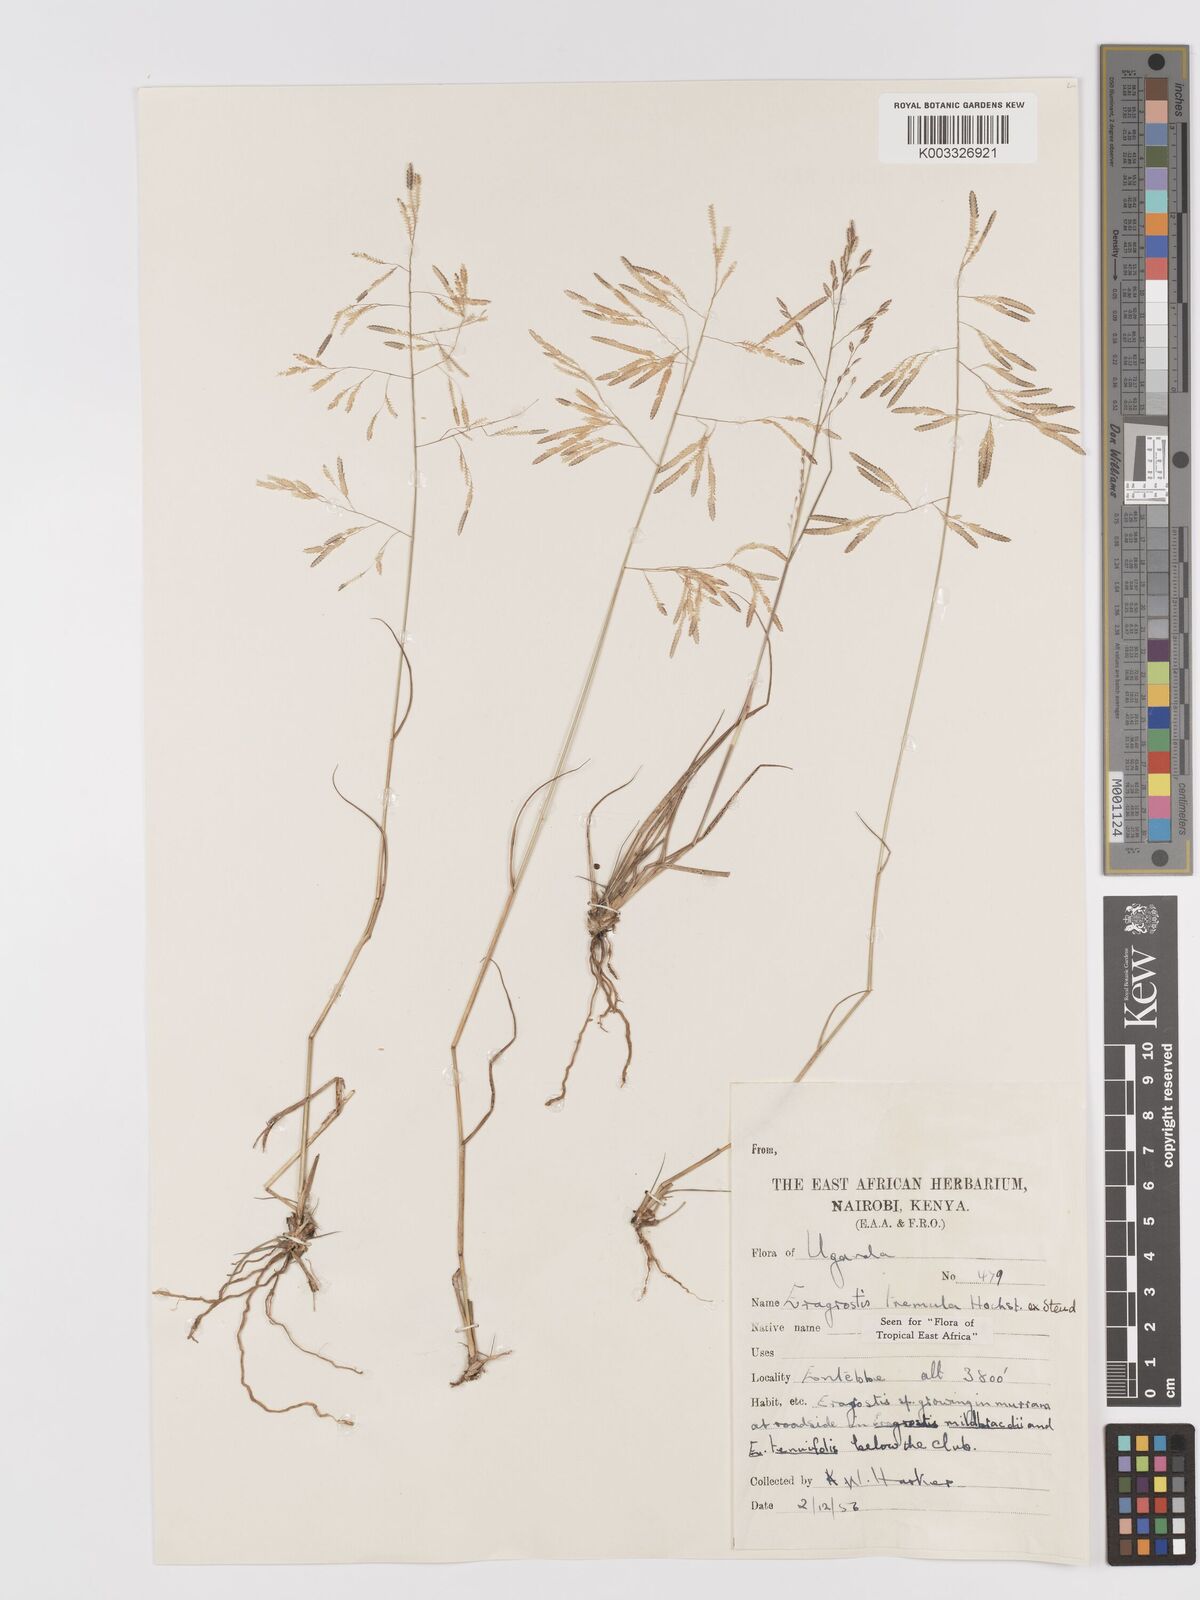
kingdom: Plantae
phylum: Tracheophyta
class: Liliopsida
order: Poales
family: Poaceae
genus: Eragrostis
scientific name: Eragrostis tremula
